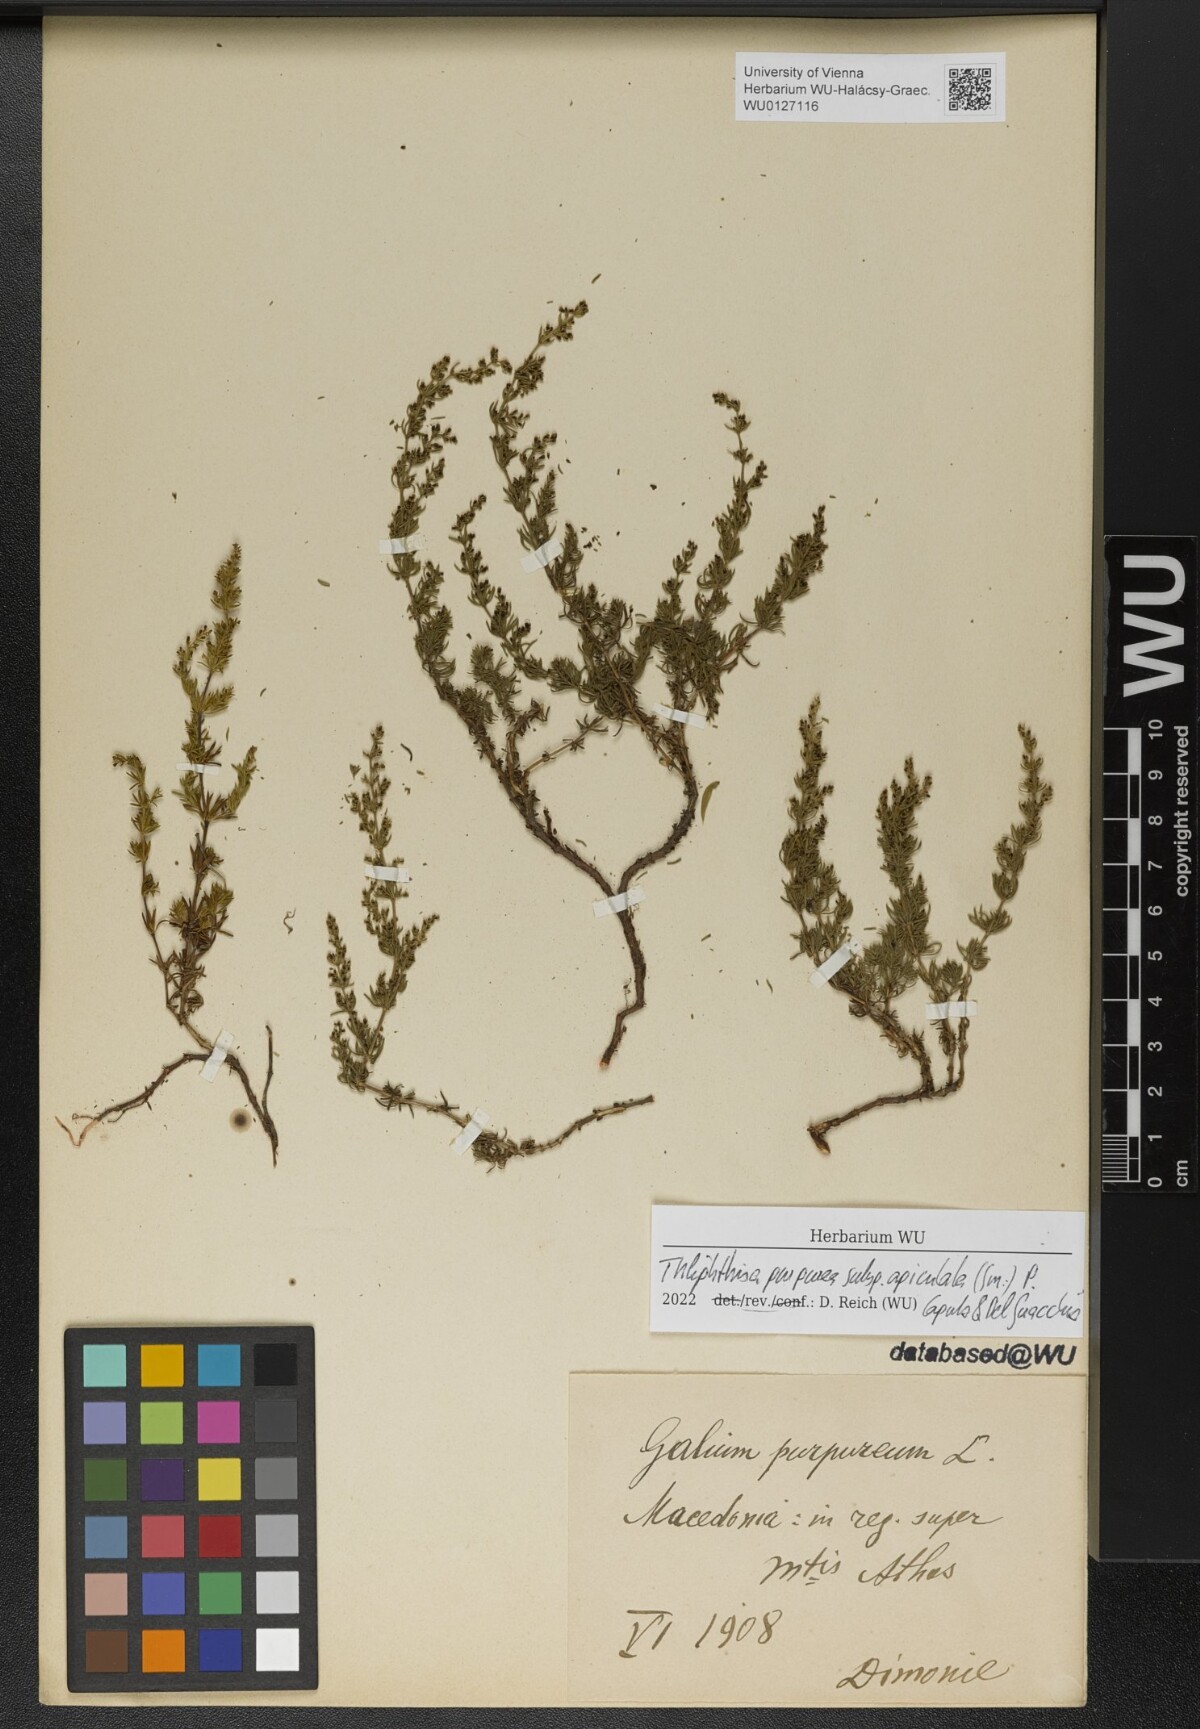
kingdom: Plantae
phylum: Tracheophyta
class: Magnoliopsida
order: Gentianales
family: Rubiaceae
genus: Thliphthisa
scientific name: Thliphthisa purpurea
